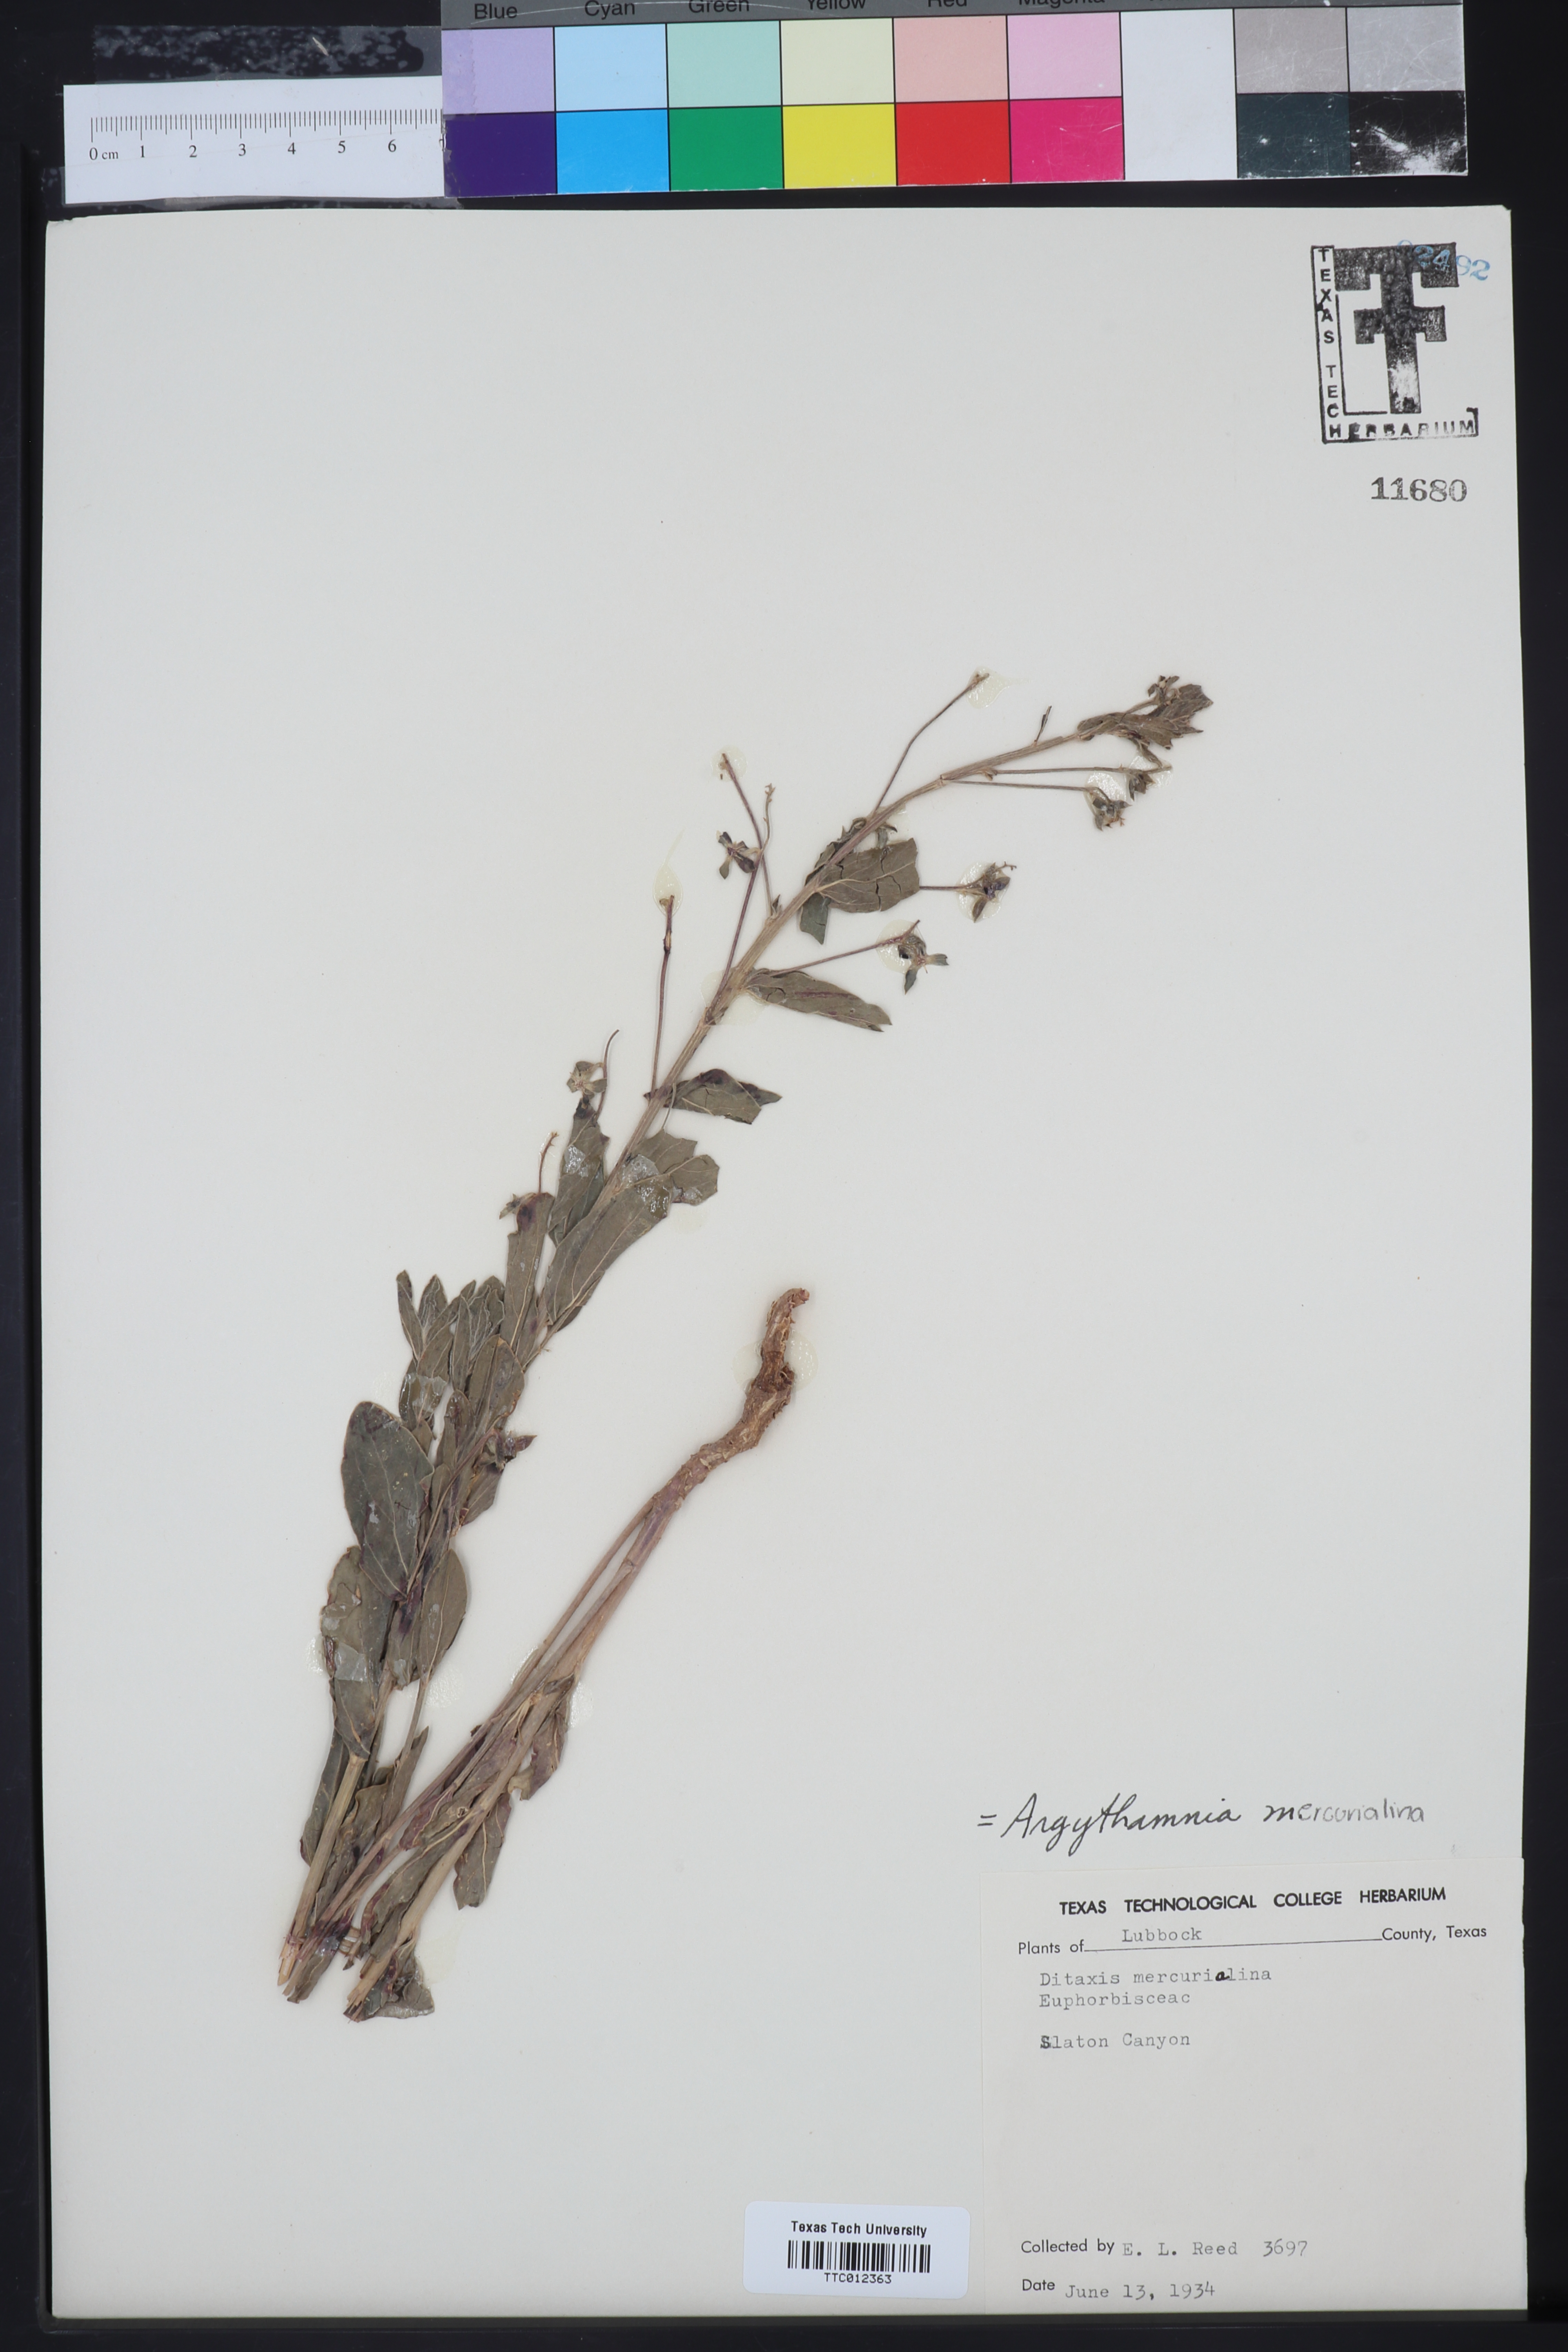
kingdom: Plantae
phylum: Tracheophyta
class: Magnoliopsida
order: Malpighiales
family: Euphorbiaceae
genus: Ditaxis
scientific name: Ditaxis mercurialina
